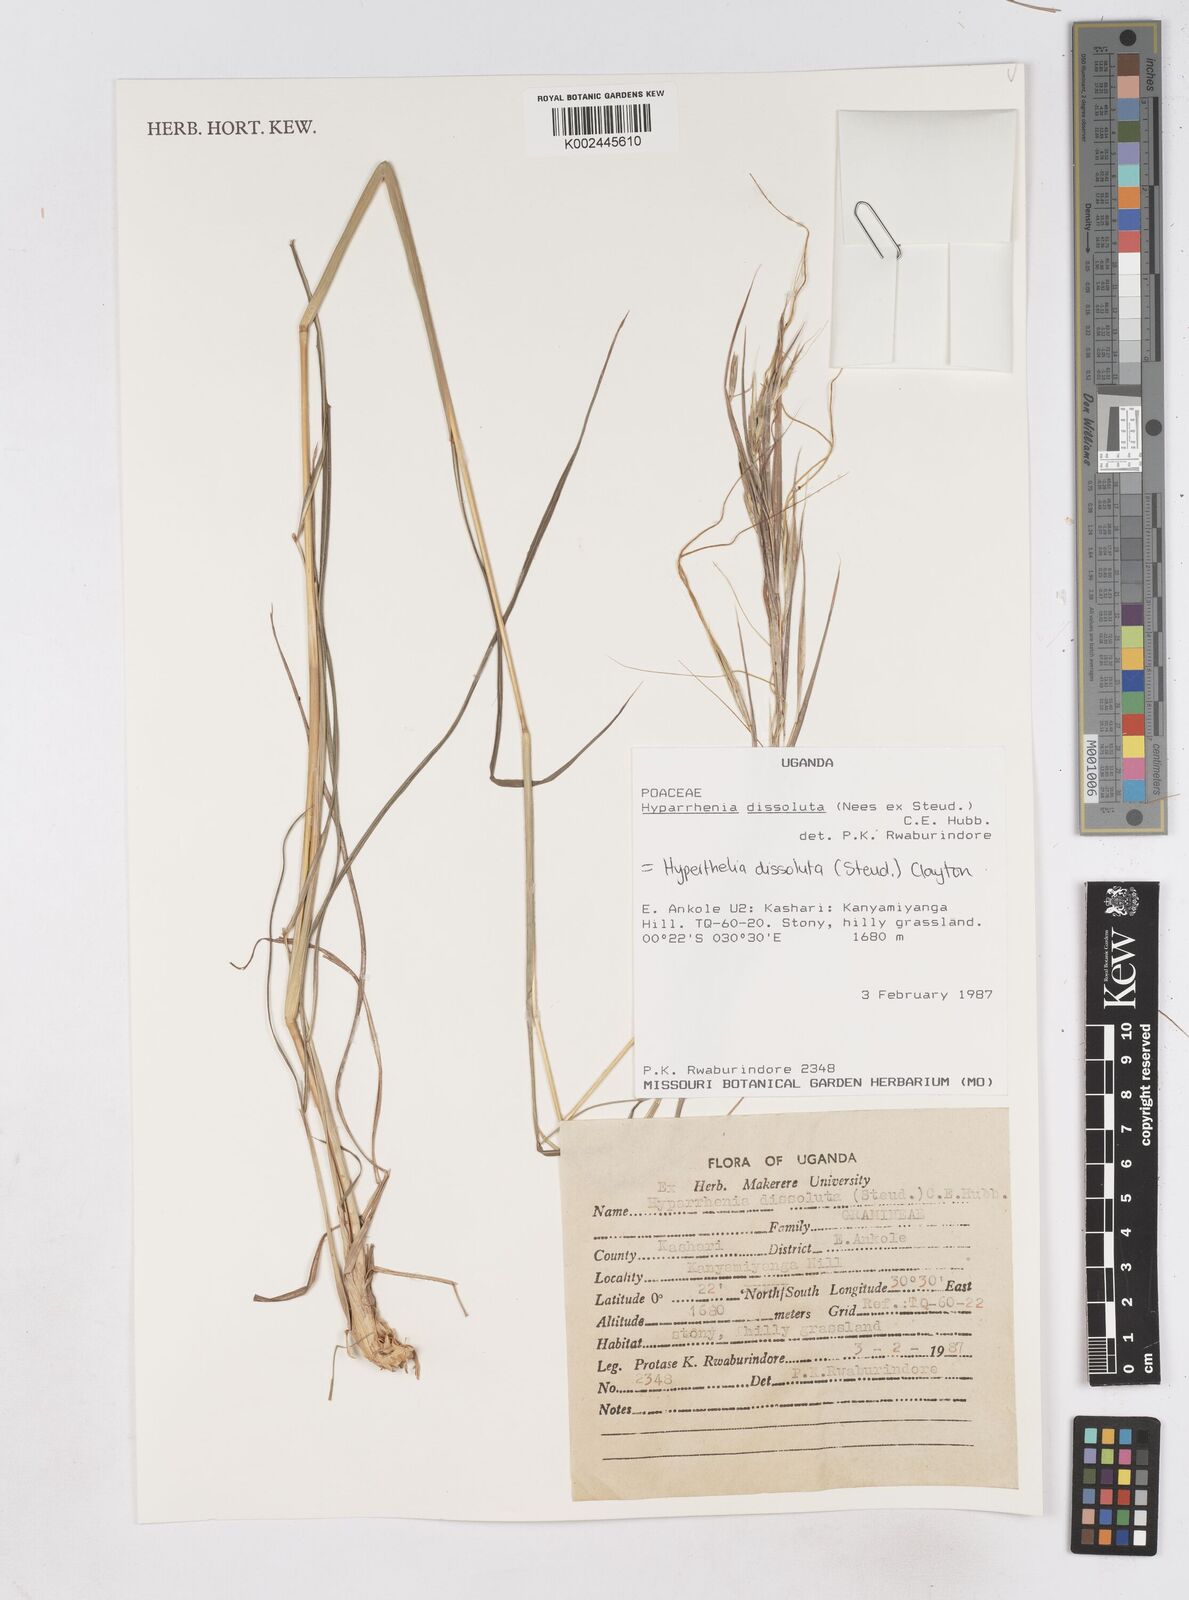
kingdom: Plantae
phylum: Tracheophyta
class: Liliopsida
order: Poales
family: Poaceae
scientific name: Poaceae
